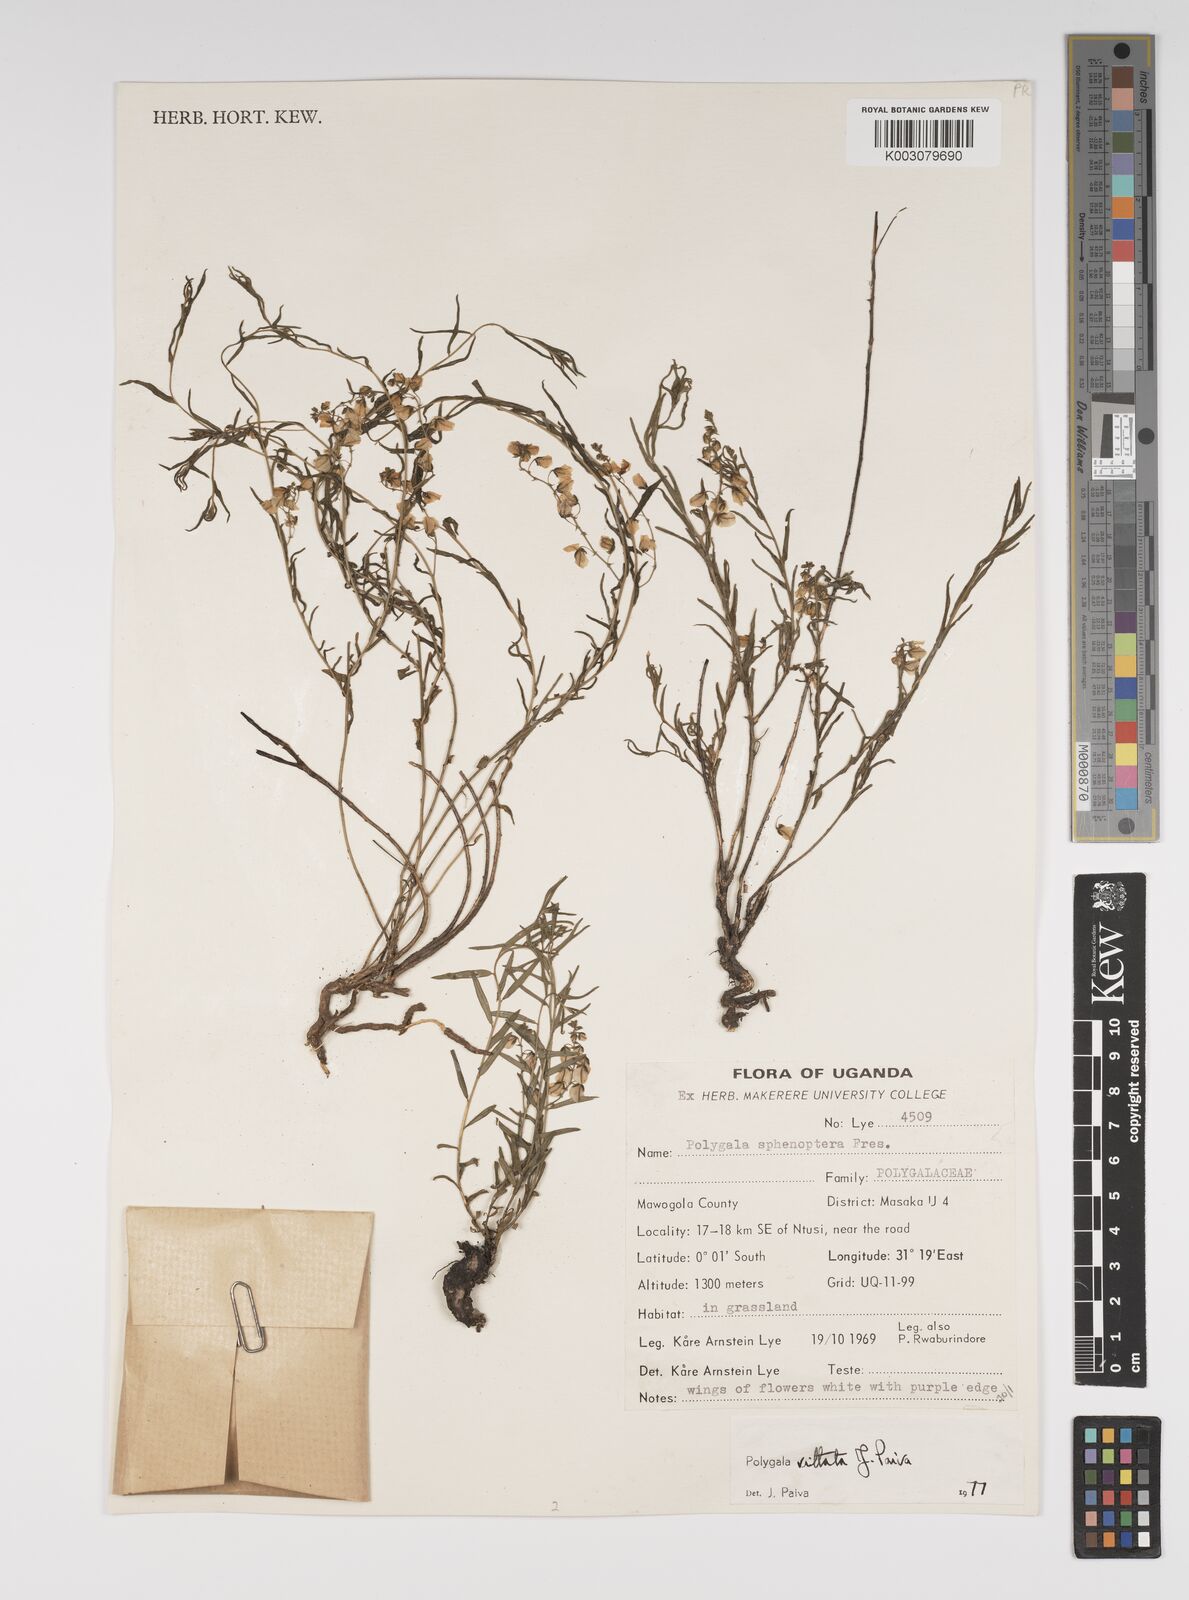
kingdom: Plantae
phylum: Tracheophyta
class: Magnoliopsida
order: Fabales
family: Polygalaceae
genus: Polygala
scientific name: Polygala vittata
